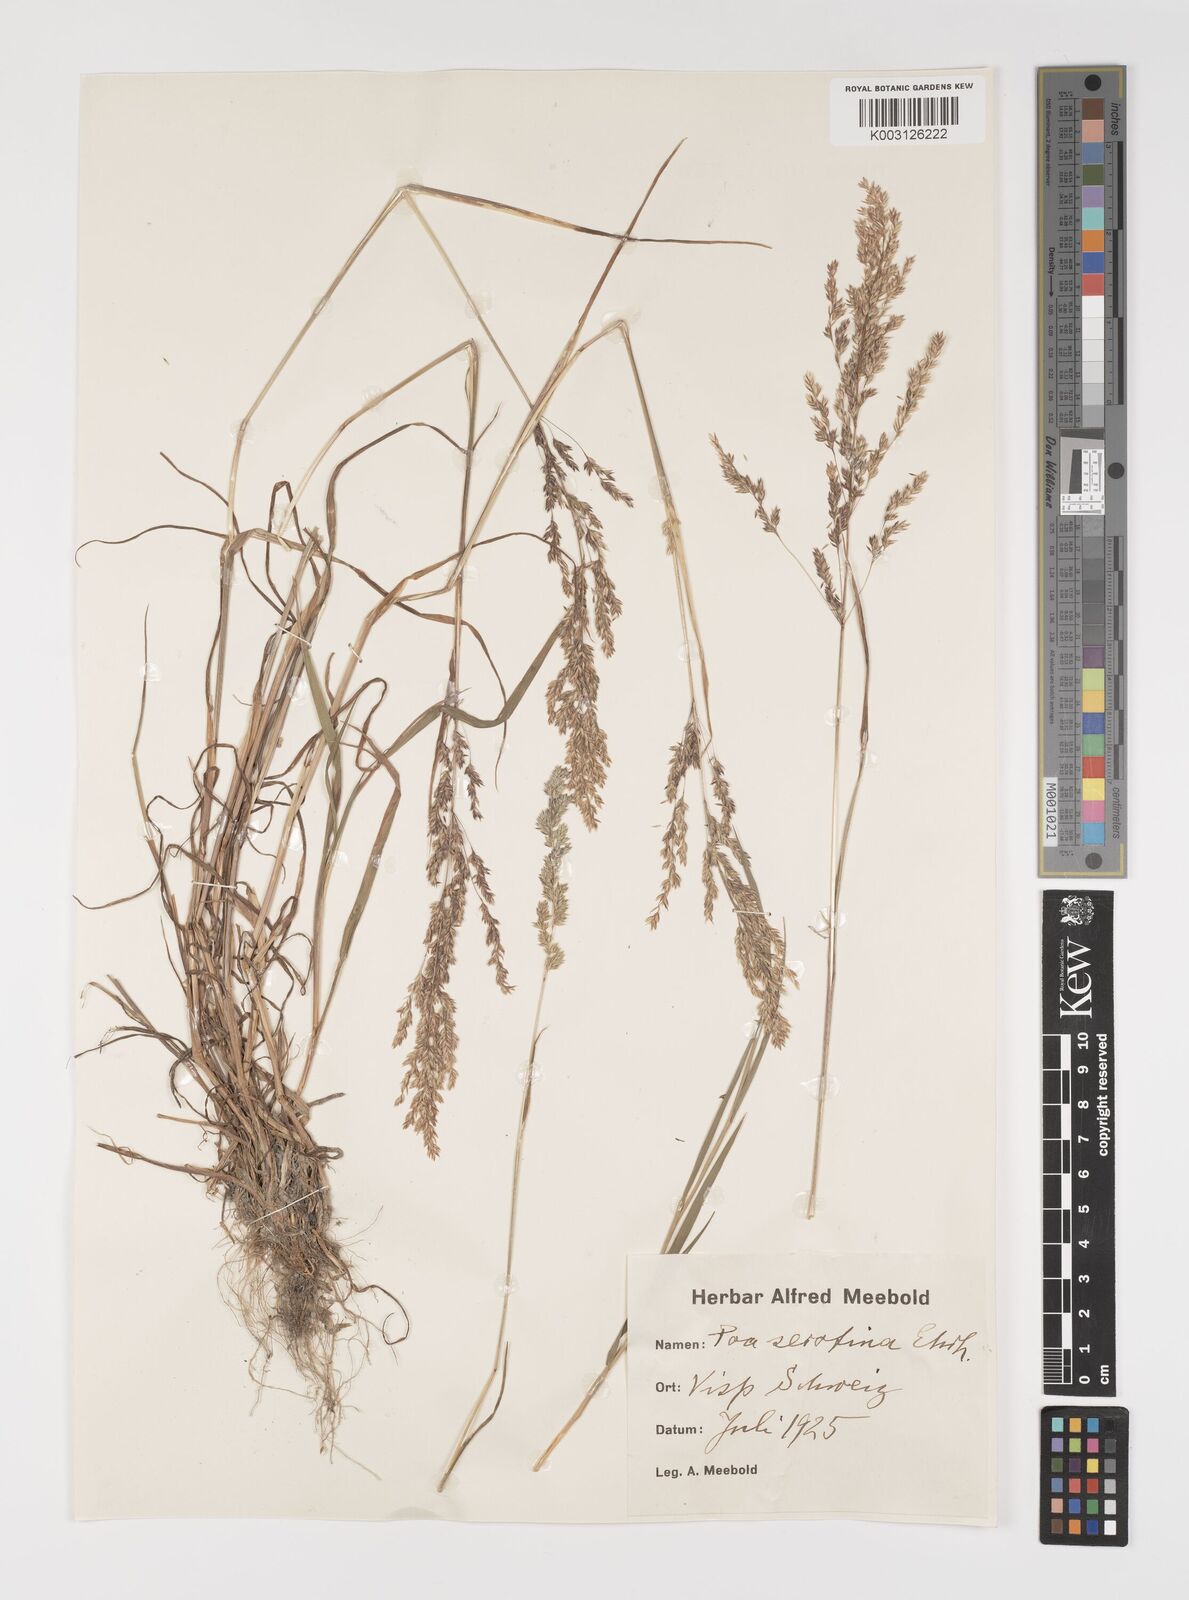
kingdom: Plantae
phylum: Tracheophyta
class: Liliopsida
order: Poales
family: Poaceae
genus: Poa
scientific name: Poa palustris
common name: Swamp meadow-grass
